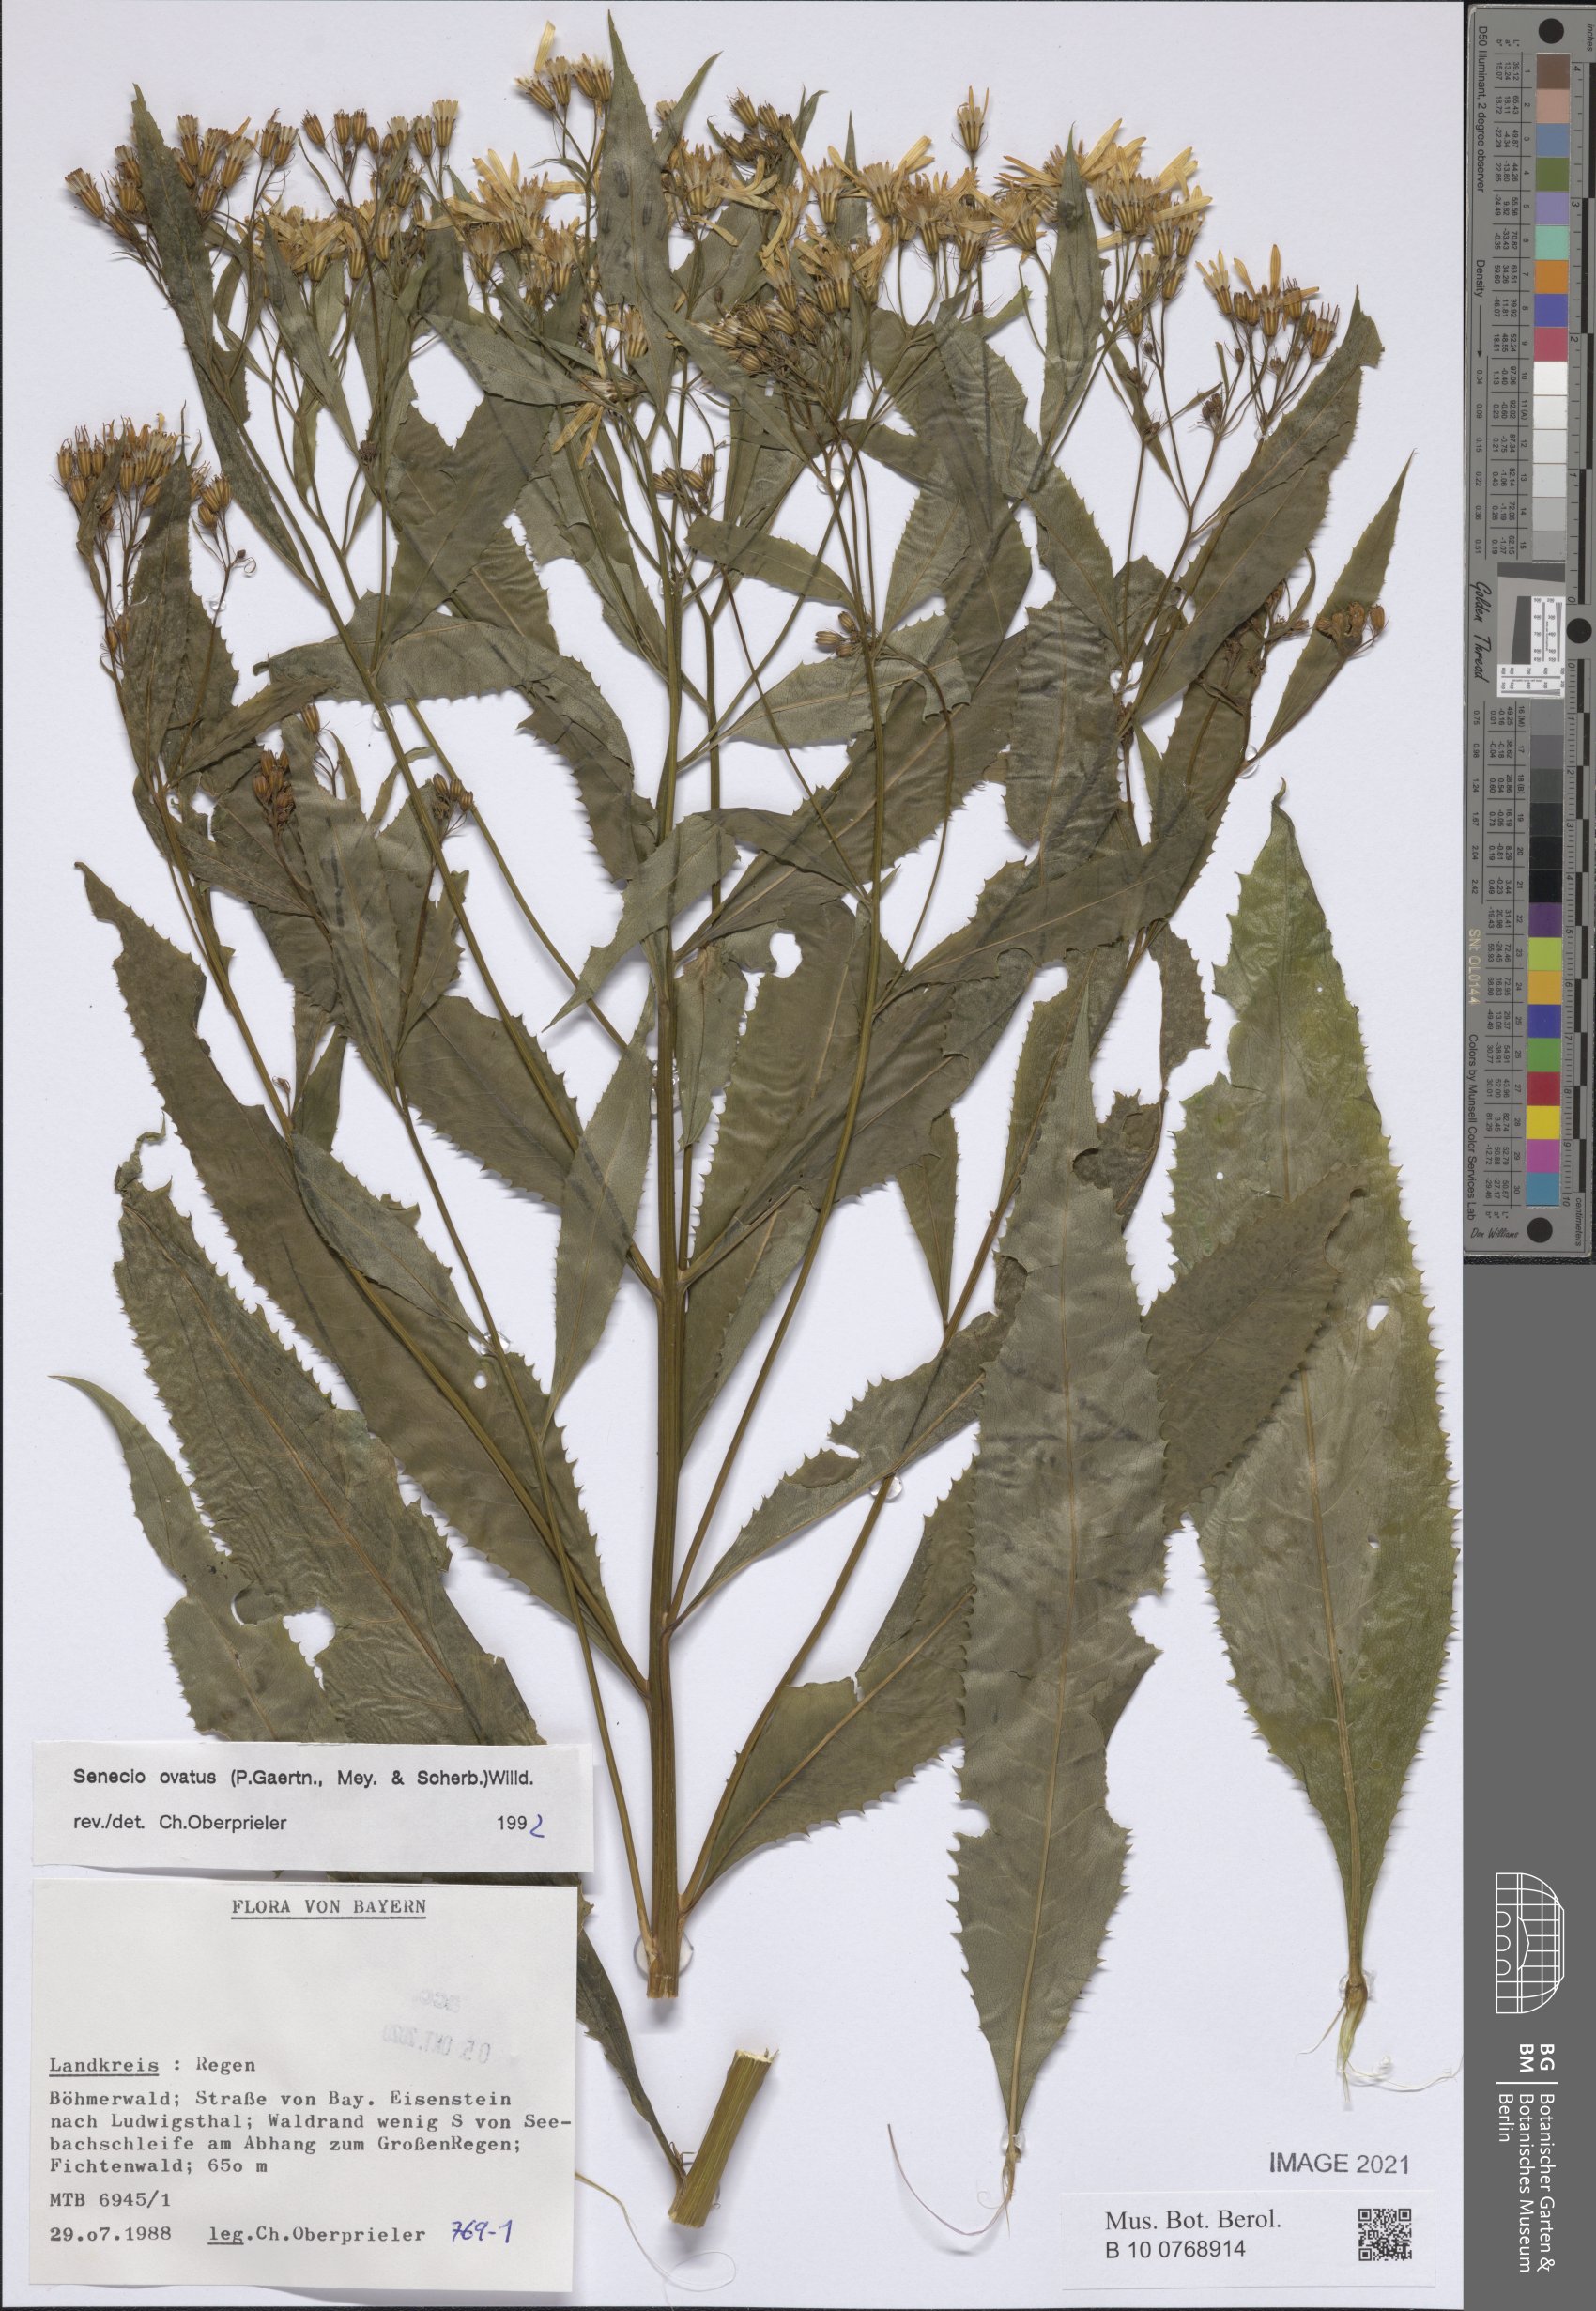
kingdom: Plantae
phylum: Tracheophyta
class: Magnoliopsida
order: Asterales
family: Asteraceae
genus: Senecio
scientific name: Senecio ovatus
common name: Wood ragwort
